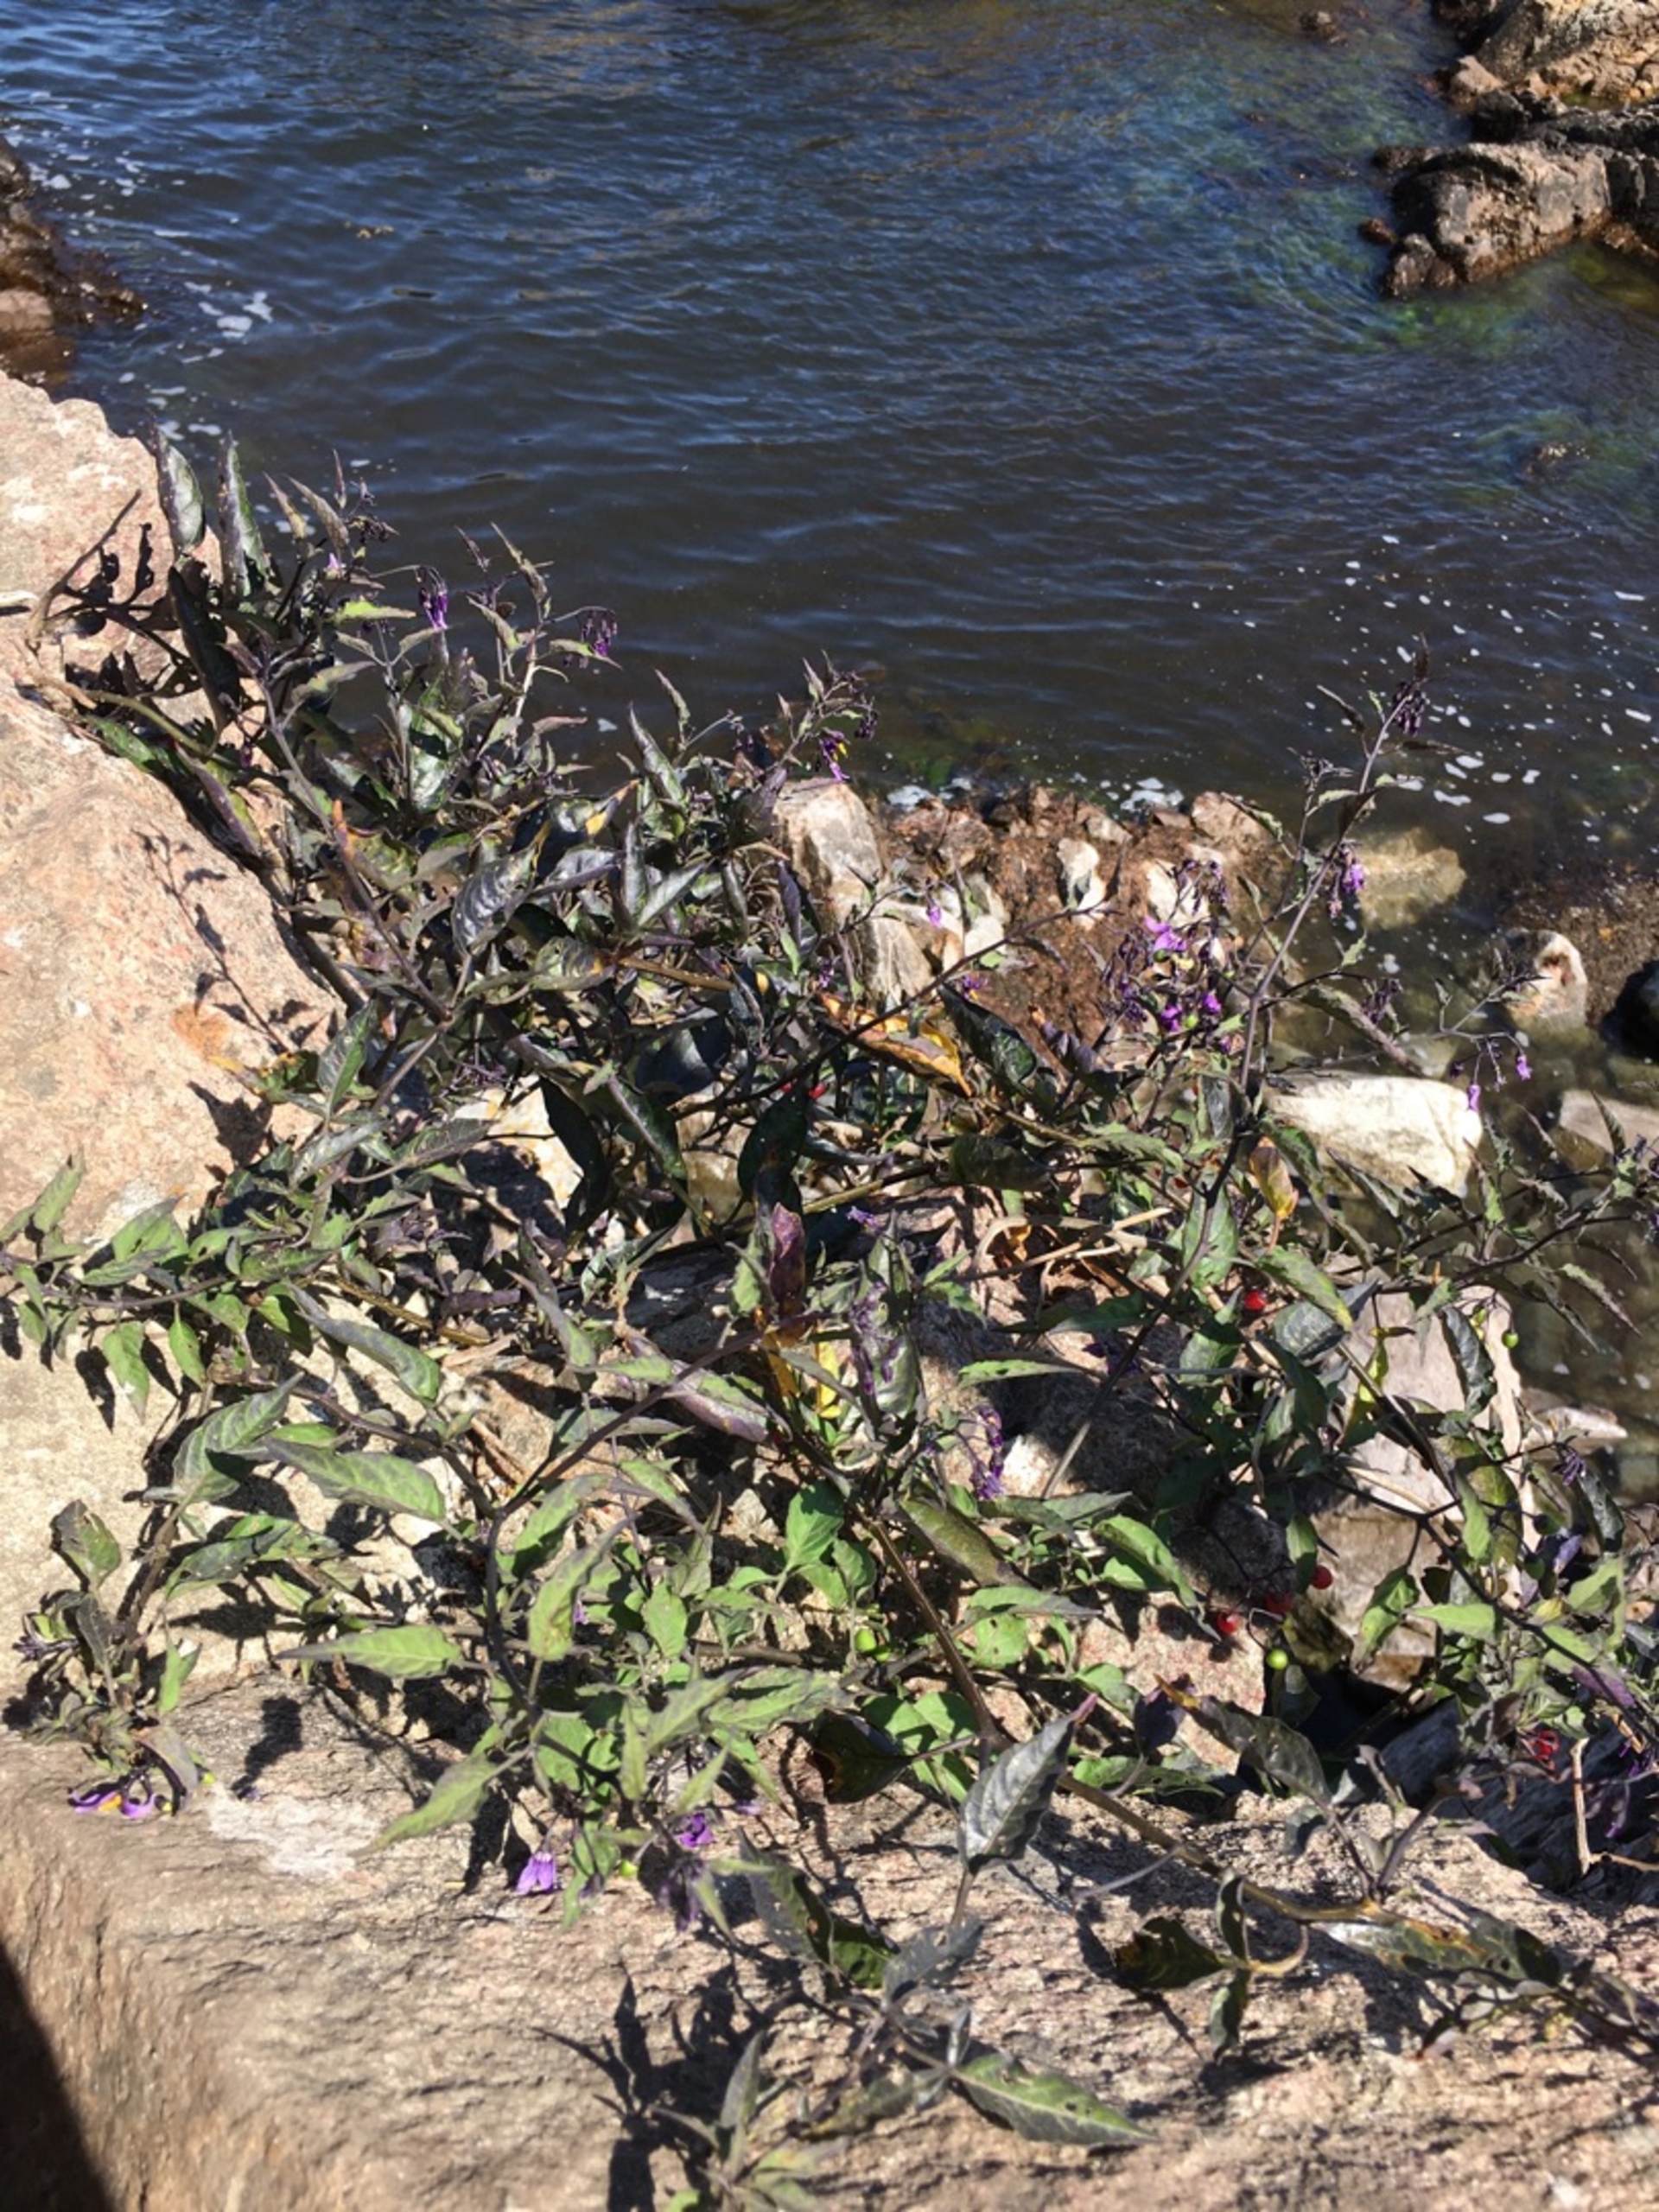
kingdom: Plantae
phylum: Tracheophyta
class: Magnoliopsida
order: Solanales
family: Solanaceae
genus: Solanum
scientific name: Solanum dulcamara
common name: Bittersød natskygge
